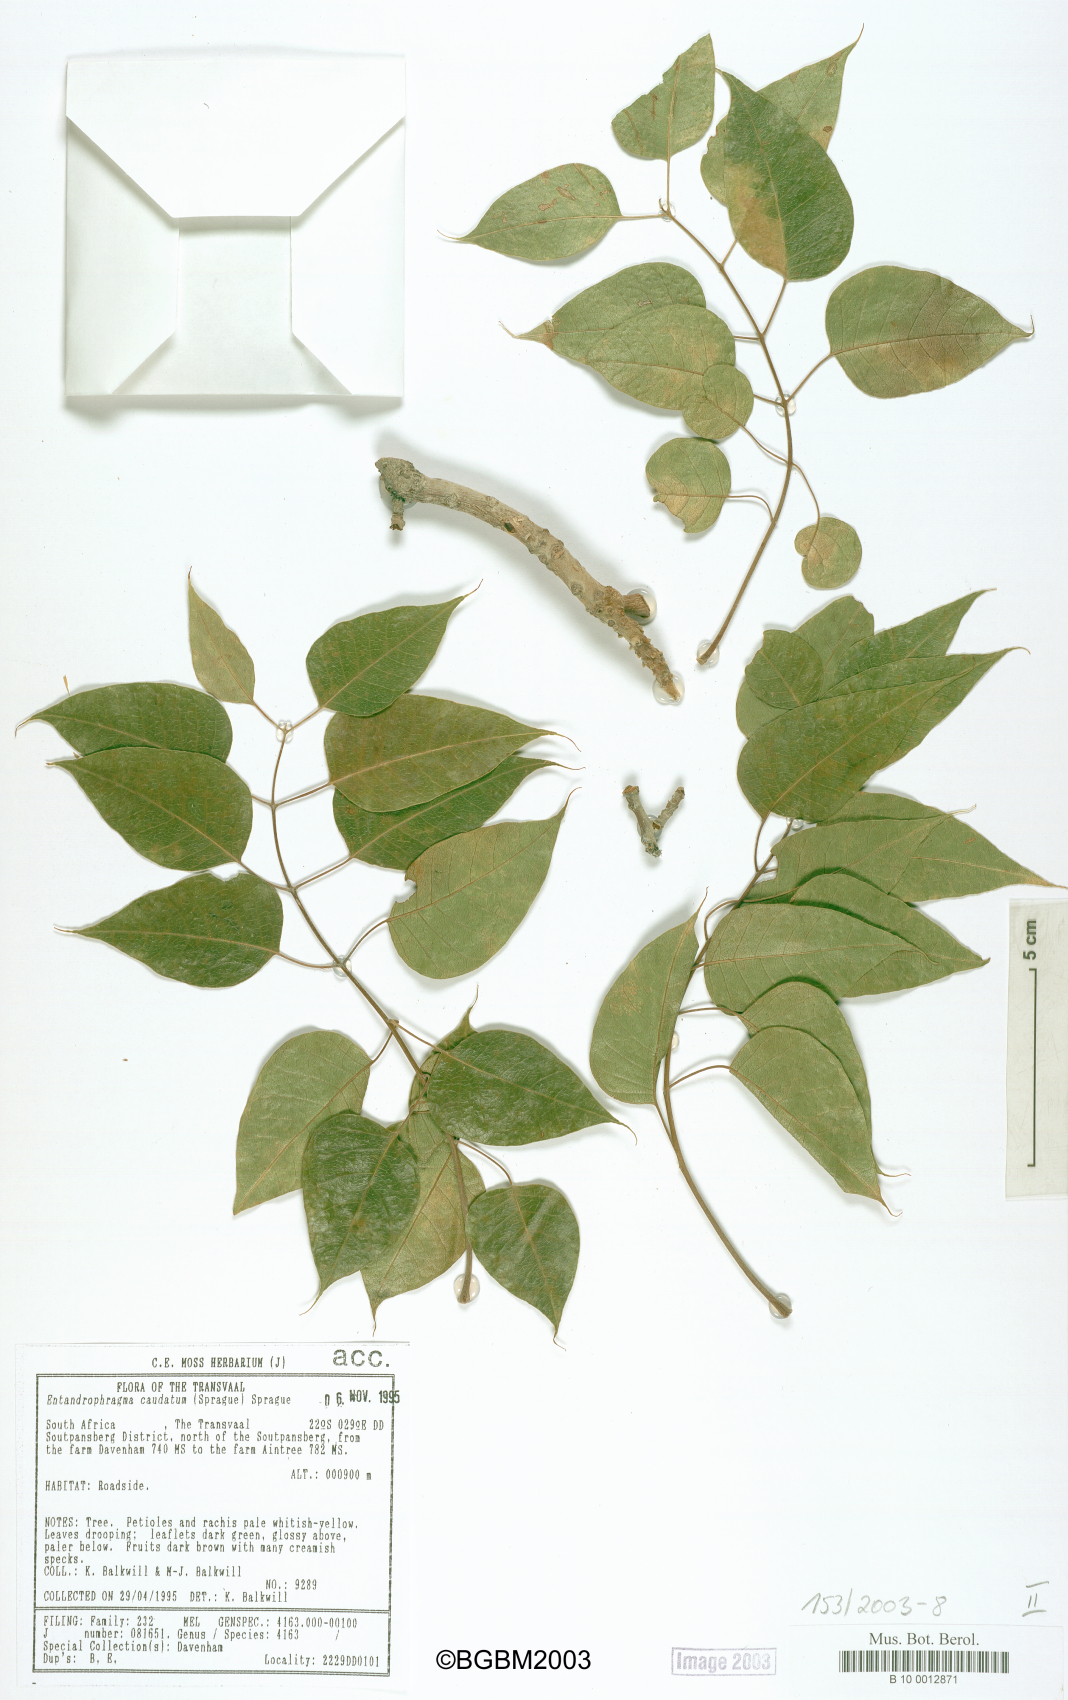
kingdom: Plantae
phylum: Tracheophyta
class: Magnoliopsida
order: Sapindales
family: Meliaceae
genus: Entandrophragma
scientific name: Entandrophragma caudatum
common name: Mountain-mahogany
